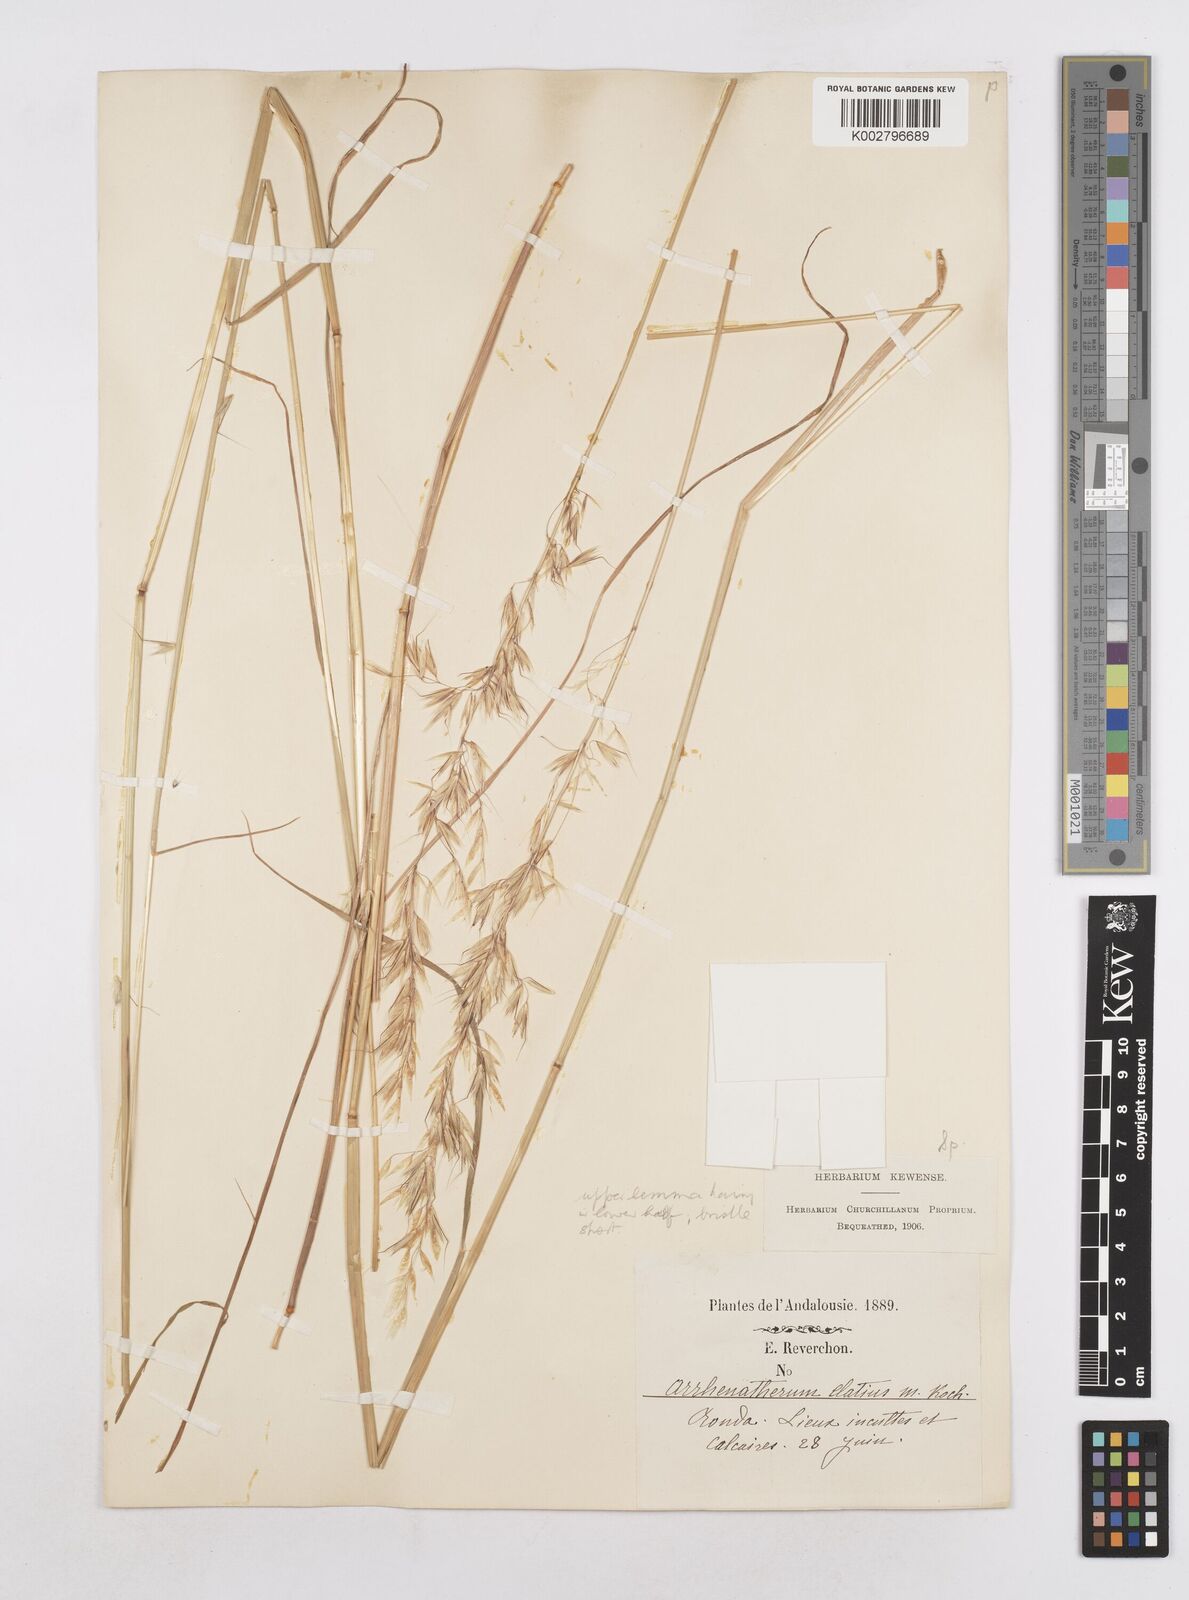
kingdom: Plantae
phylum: Tracheophyta
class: Liliopsida
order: Poales
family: Poaceae
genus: Arrhenatherum
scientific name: Arrhenatherum album
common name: Tall oat grass
